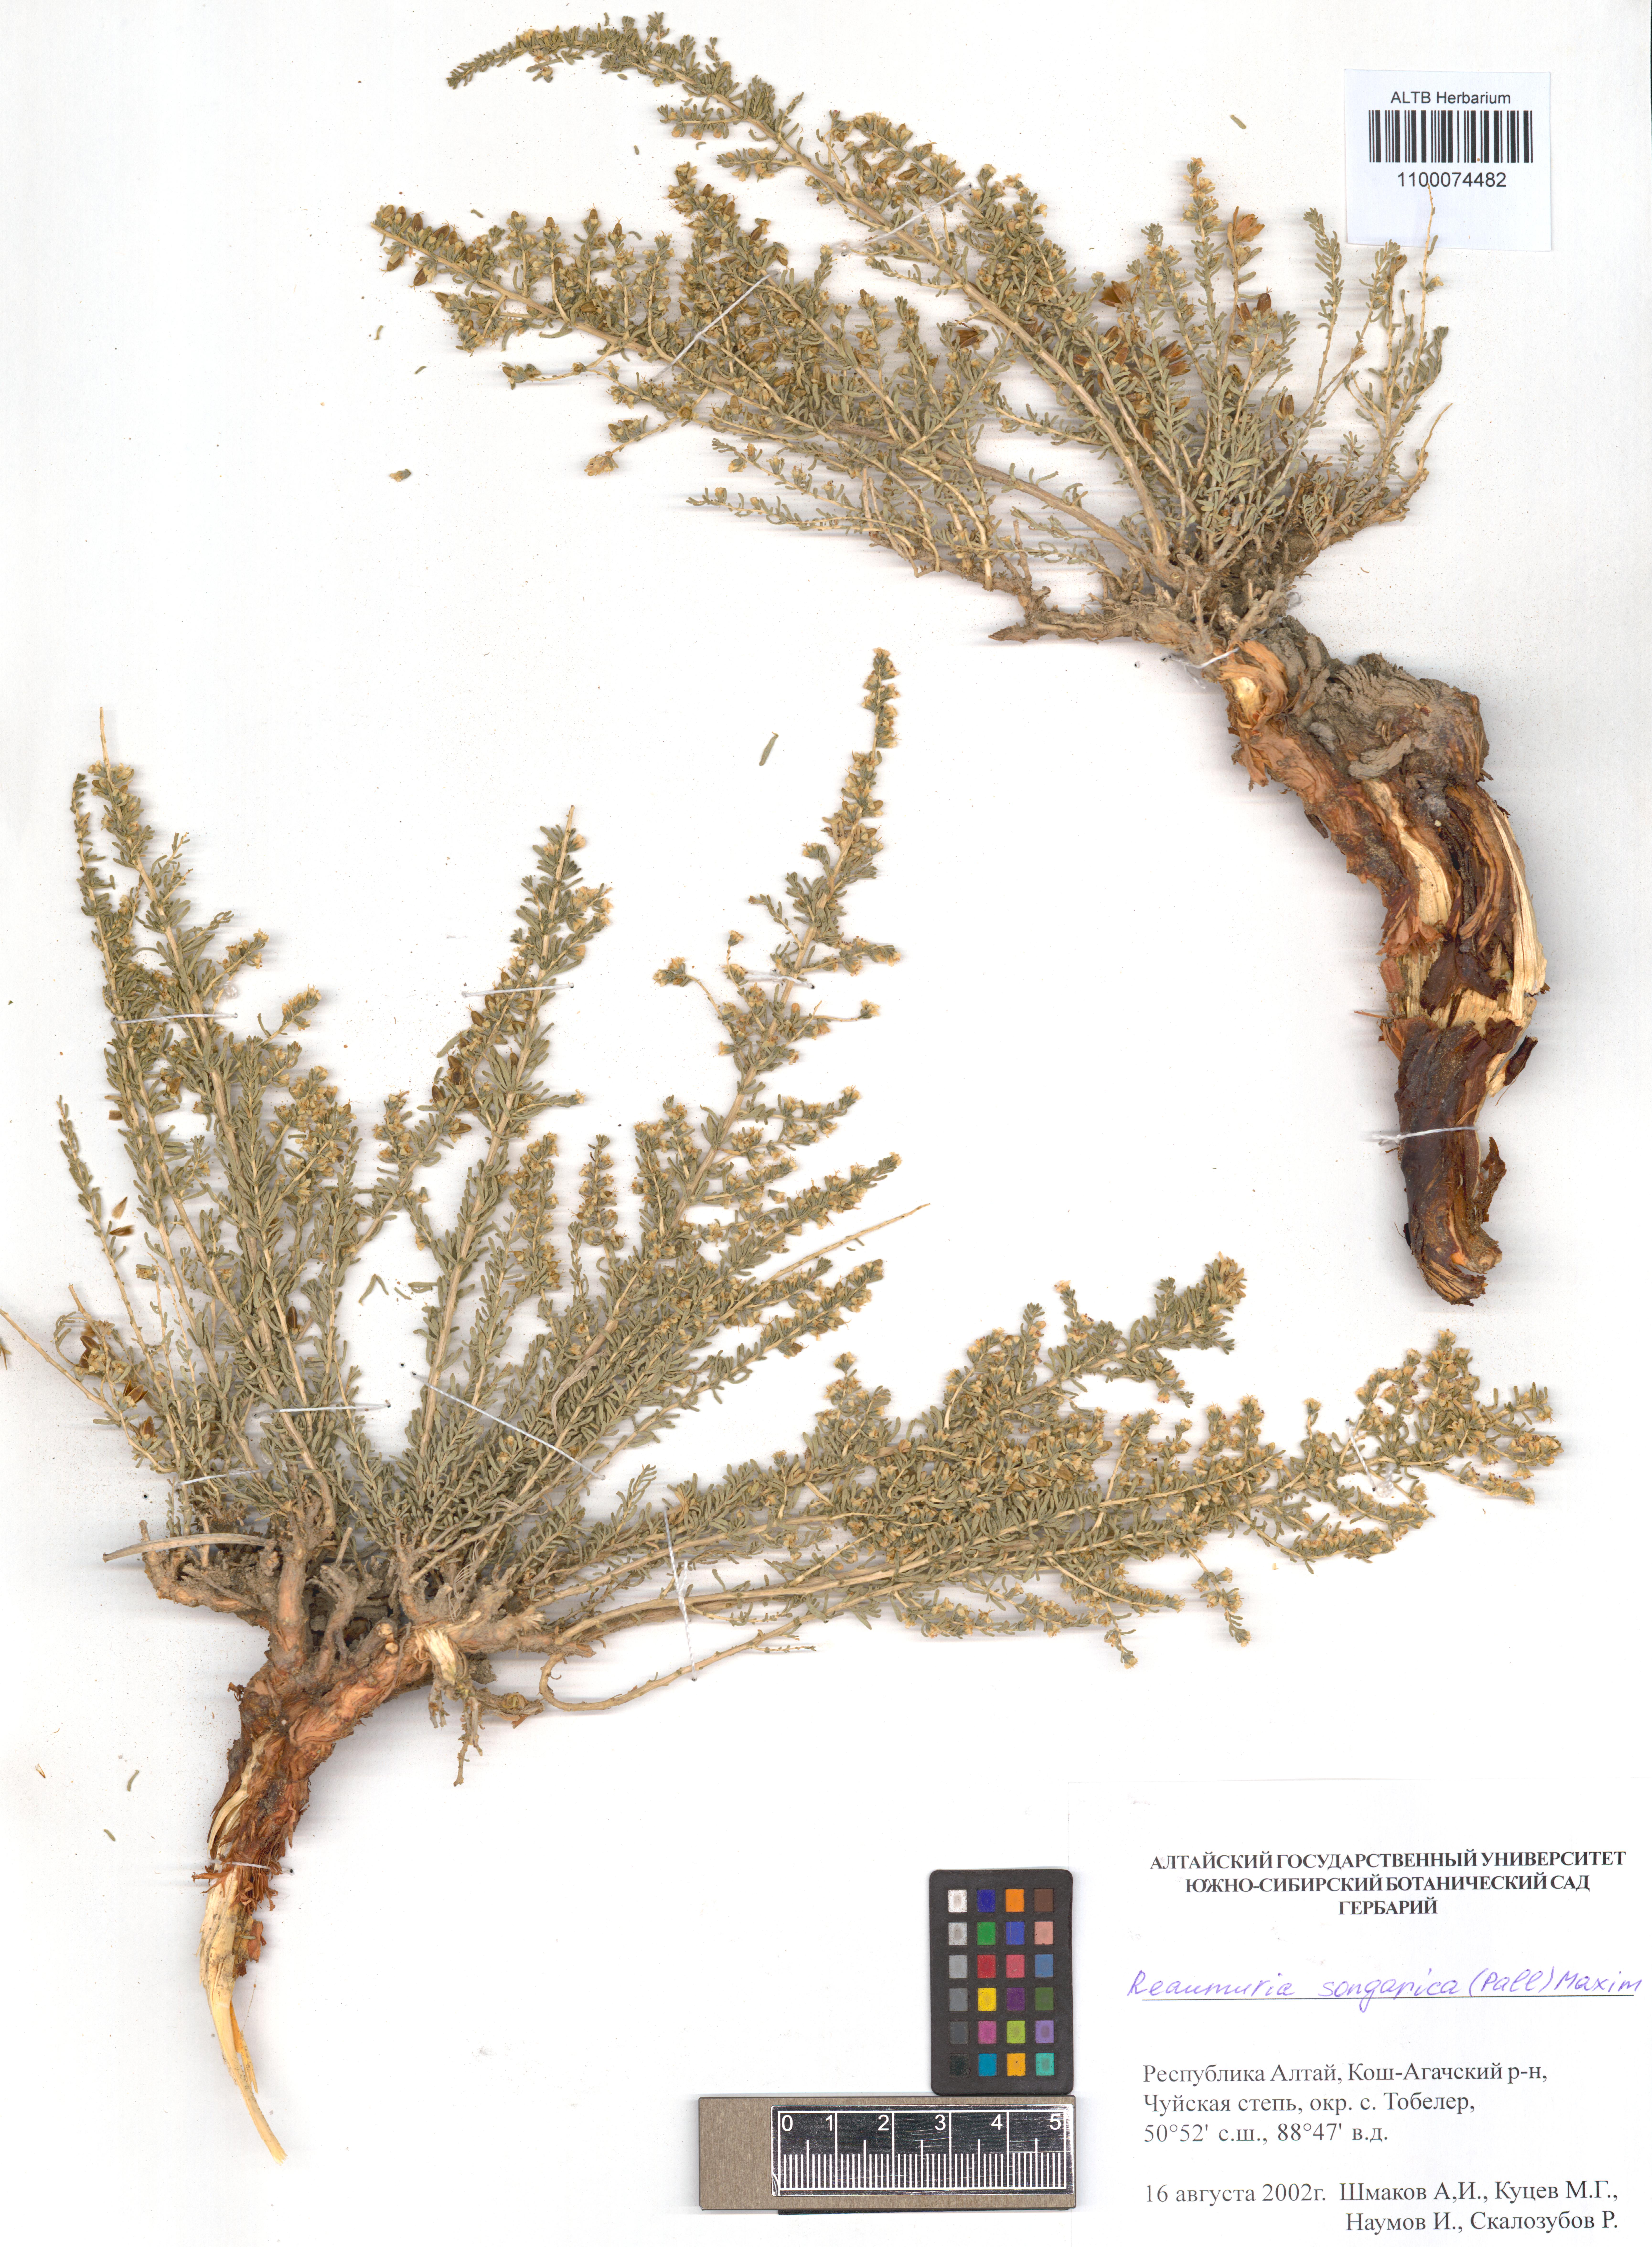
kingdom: Plantae
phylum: Tracheophyta
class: Magnoliopsida
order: Caryophyllales
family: Tamaricaceae
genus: Reaumuria
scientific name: Reaumuria songarica
